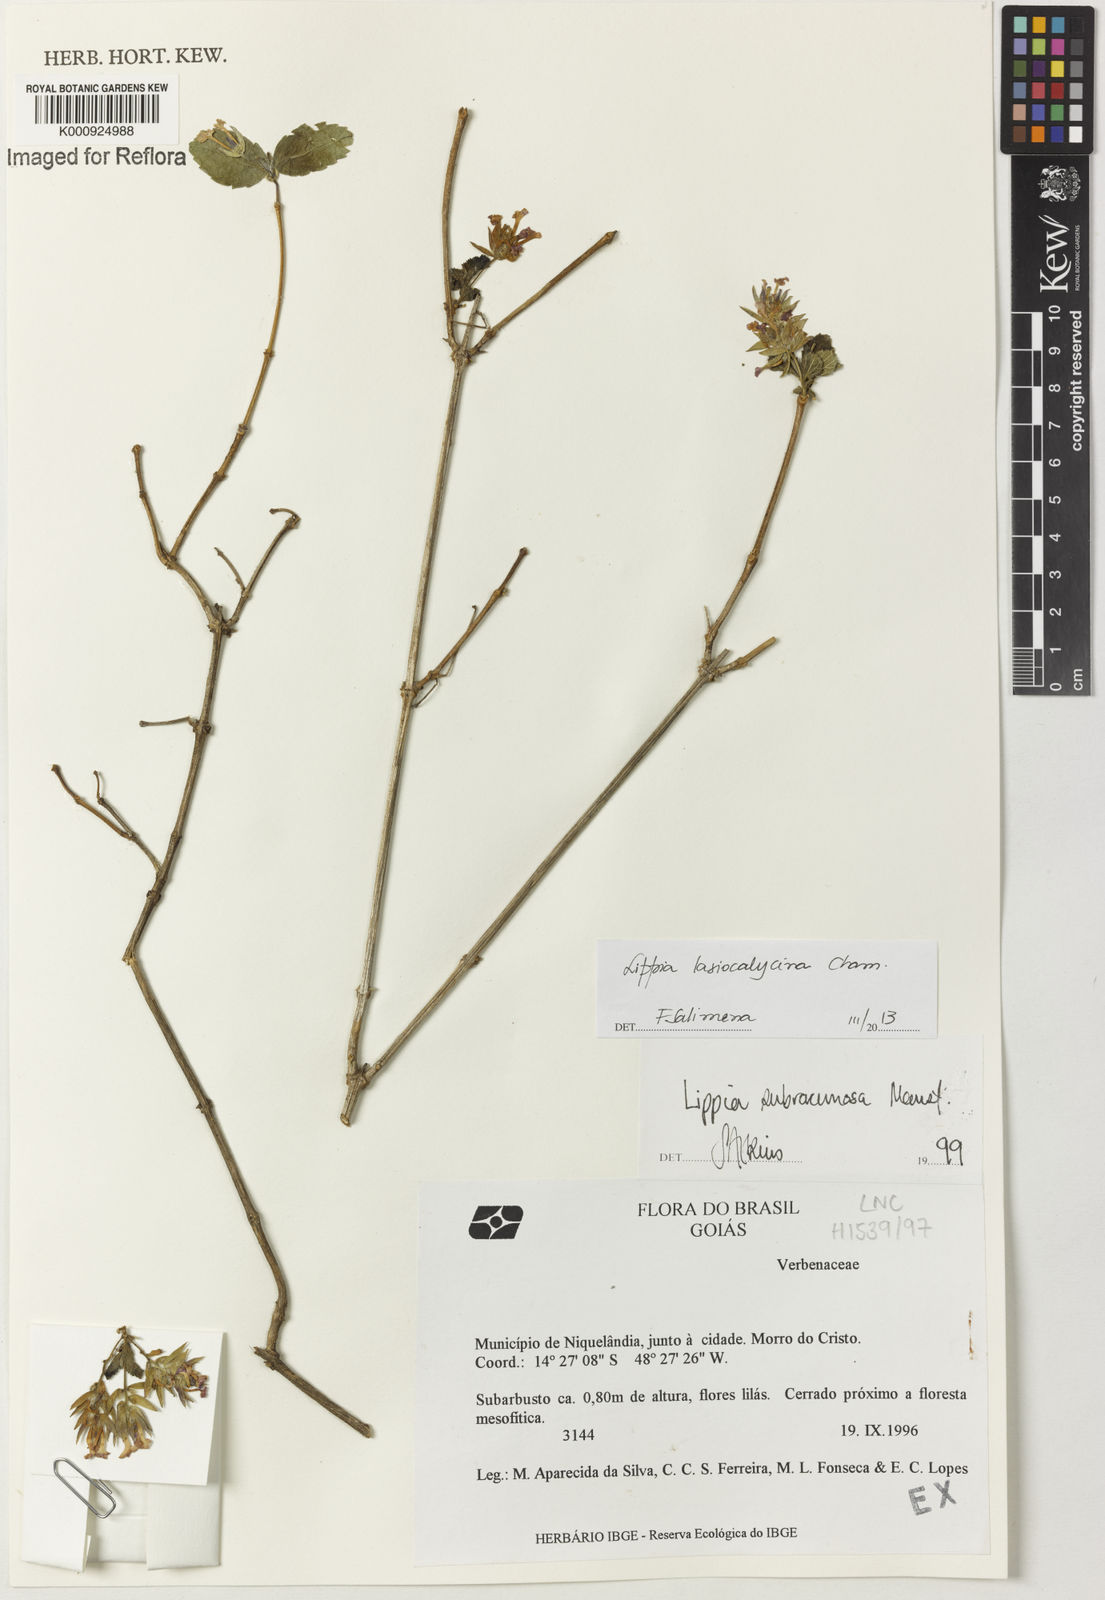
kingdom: Plantae
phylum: Tracheophyta
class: Magnoliopsida
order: Lamiales
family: Verbenaceae
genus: Lippia
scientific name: Lippia lasiocalycina
